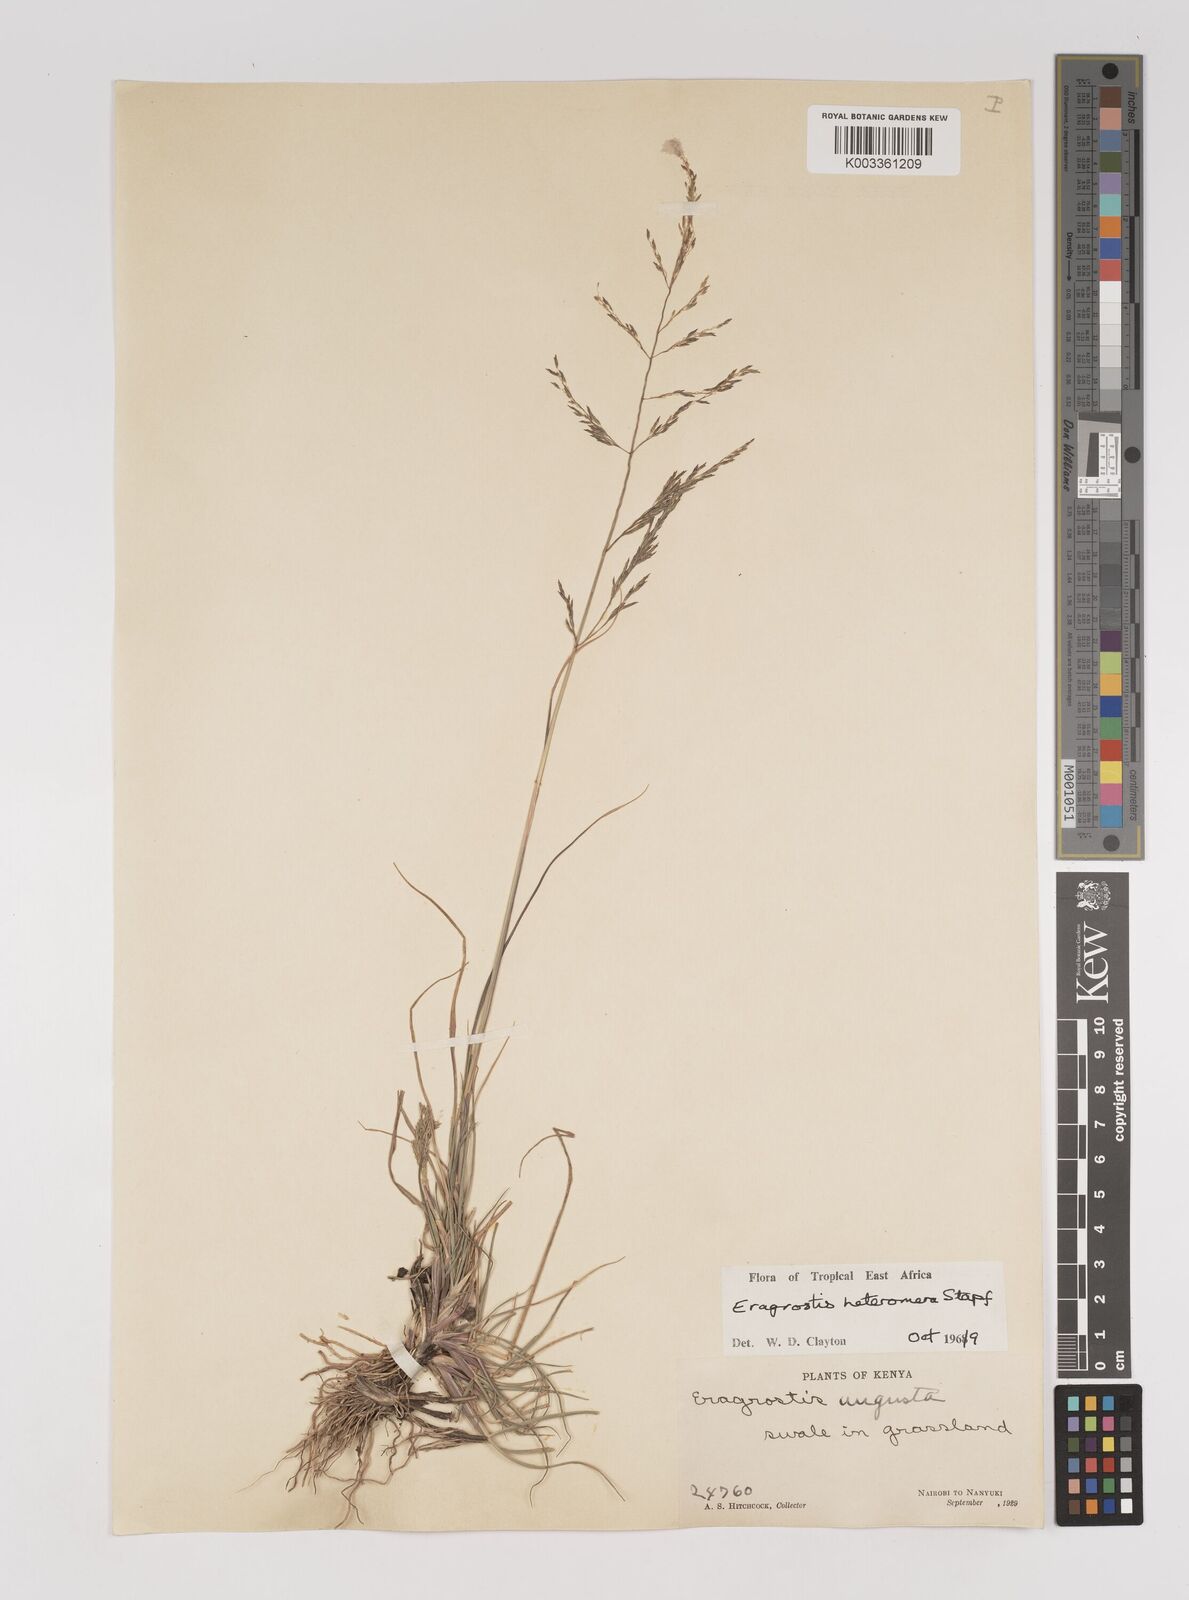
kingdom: Plantae
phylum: Tracheophyta
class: Liliopsida
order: Poales
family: Poaceae
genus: Eragrostis
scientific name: Eragrostis heteromera
